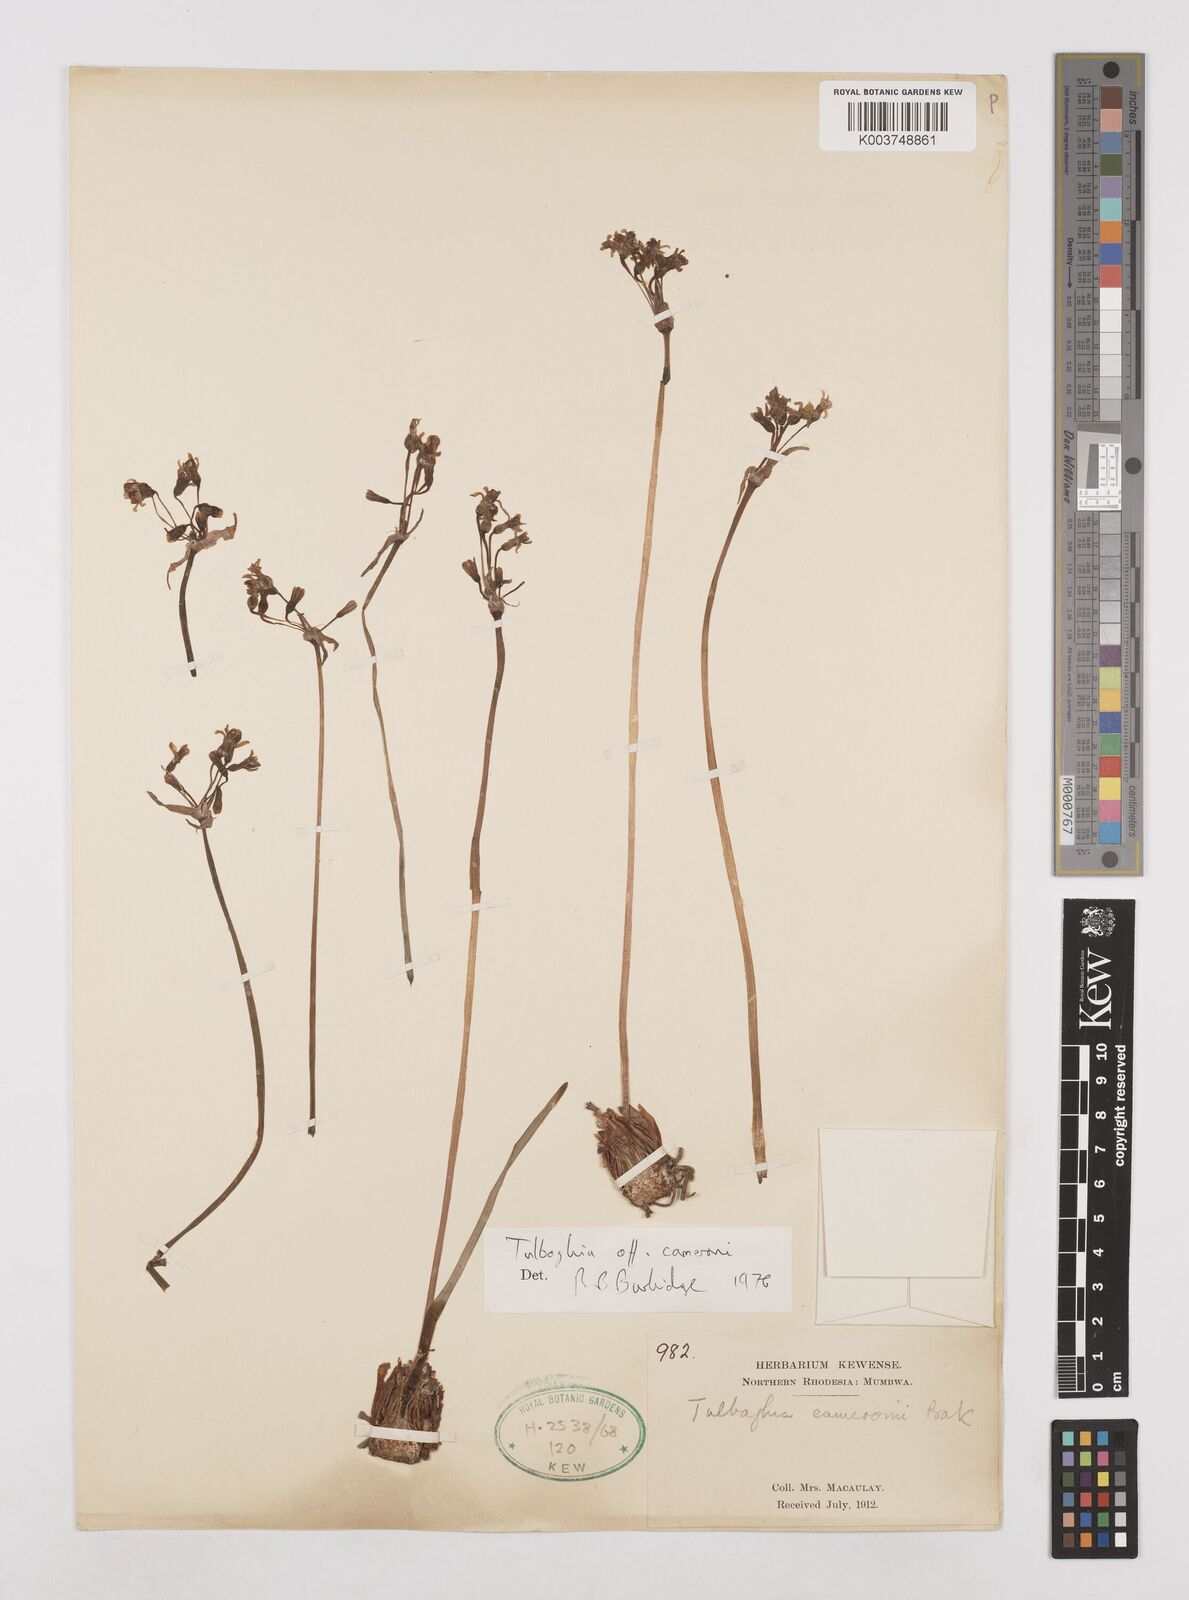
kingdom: Plantae
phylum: Tracheophyta
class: Liliopsida
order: Asparagales
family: Amaryllidaceae
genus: Tulbaghia
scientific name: Tulbaghia cameronii
